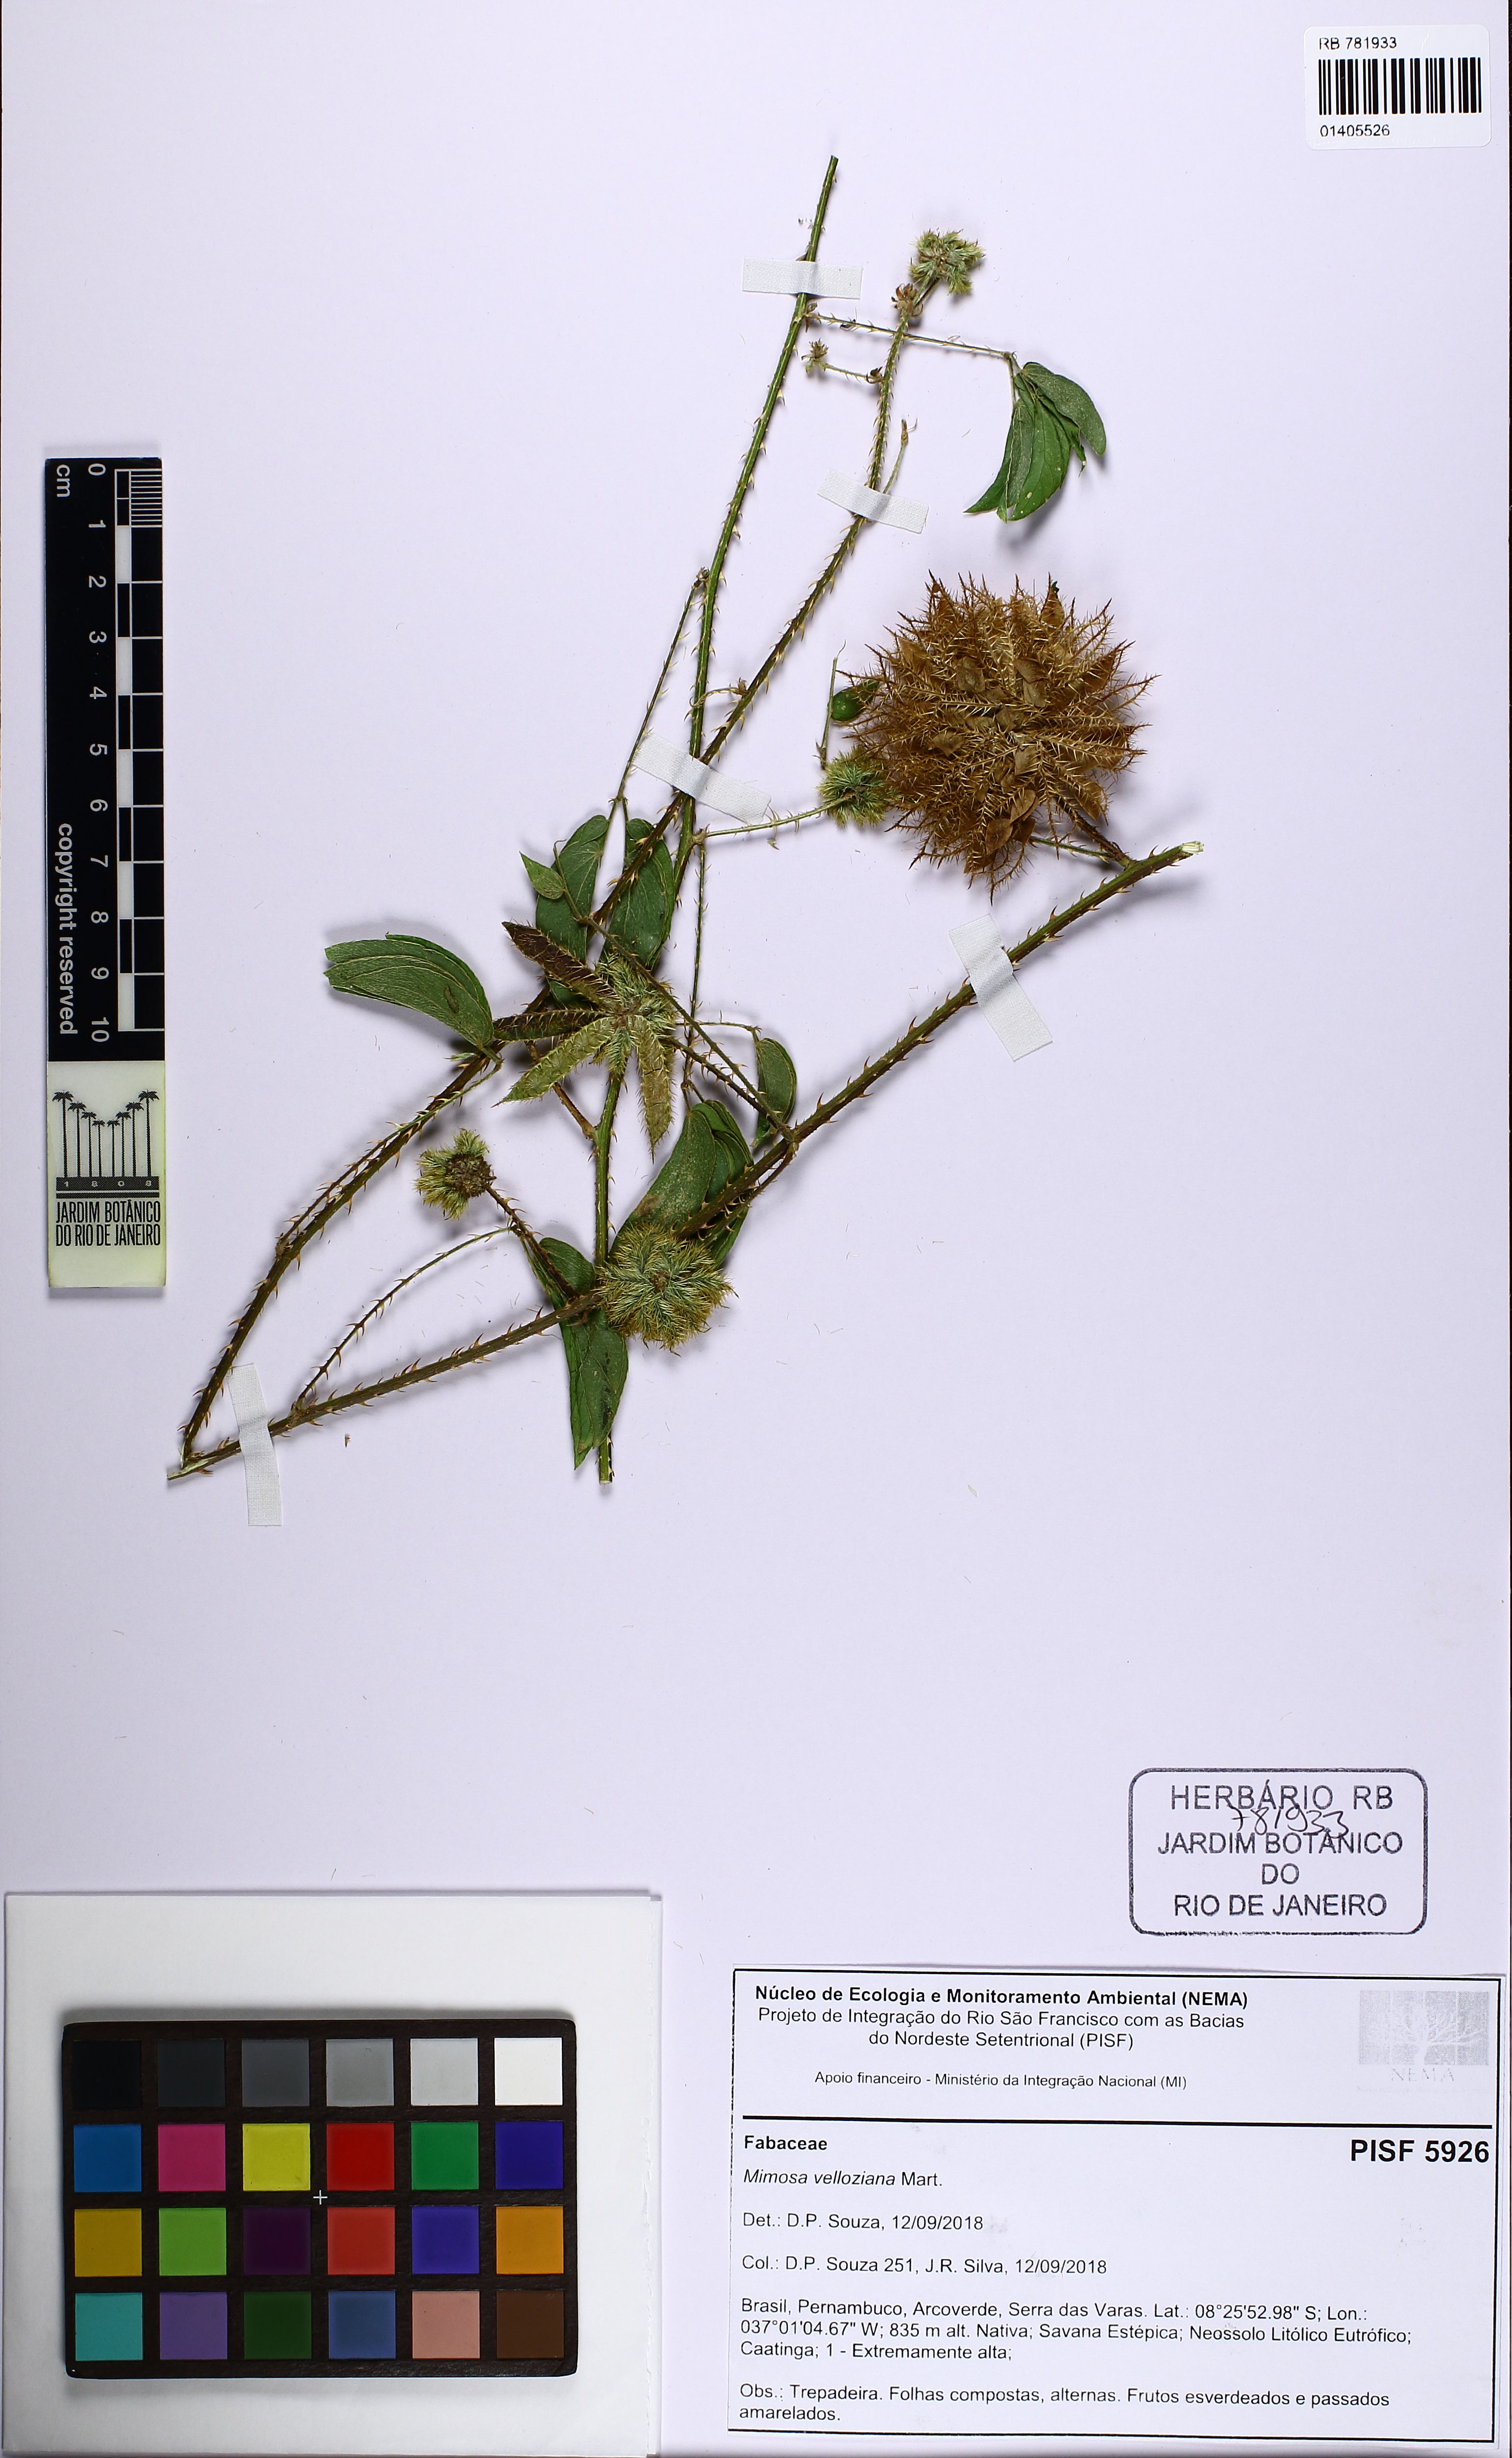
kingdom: Plantae
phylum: Tracheophyta
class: Magnoliopsida
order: Fabales
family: Fabaceae
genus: Mimosa
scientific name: Mimosa velloziana
